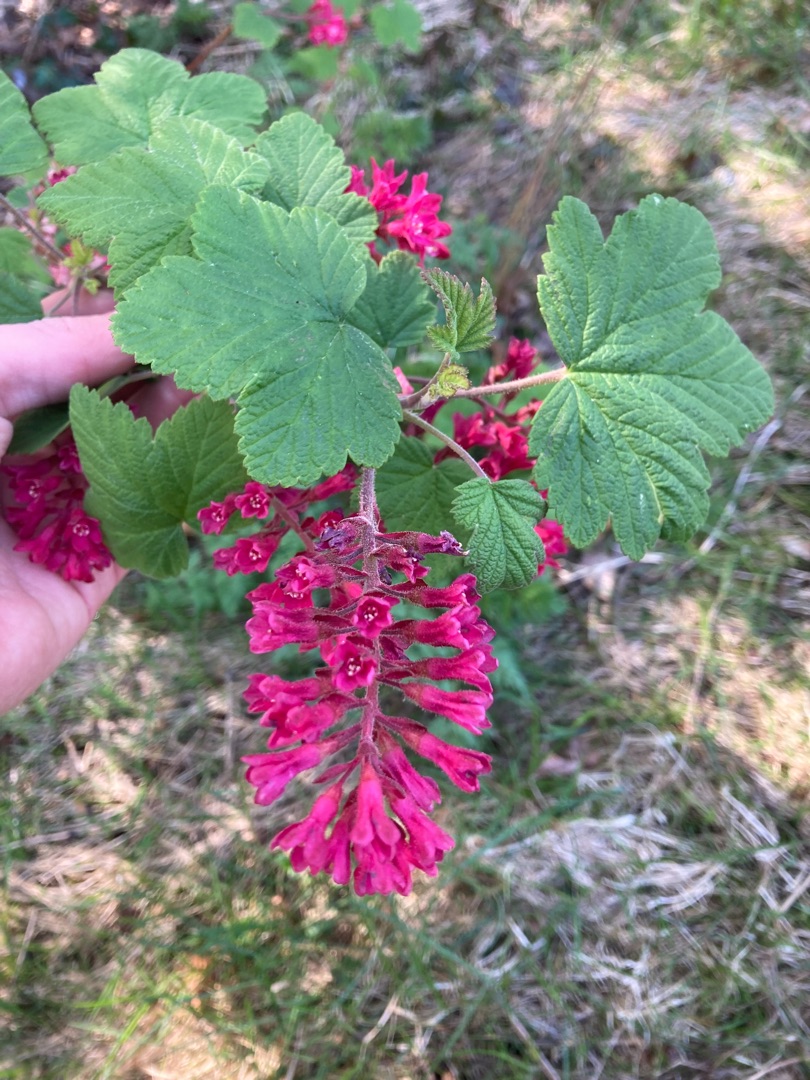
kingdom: Plantae
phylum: Tracheophyta
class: Magnoliopsida
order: Saxifragales
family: Grossulariaceae
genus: Ribes
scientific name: Ribes sanguineum
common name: Blod-ribs
